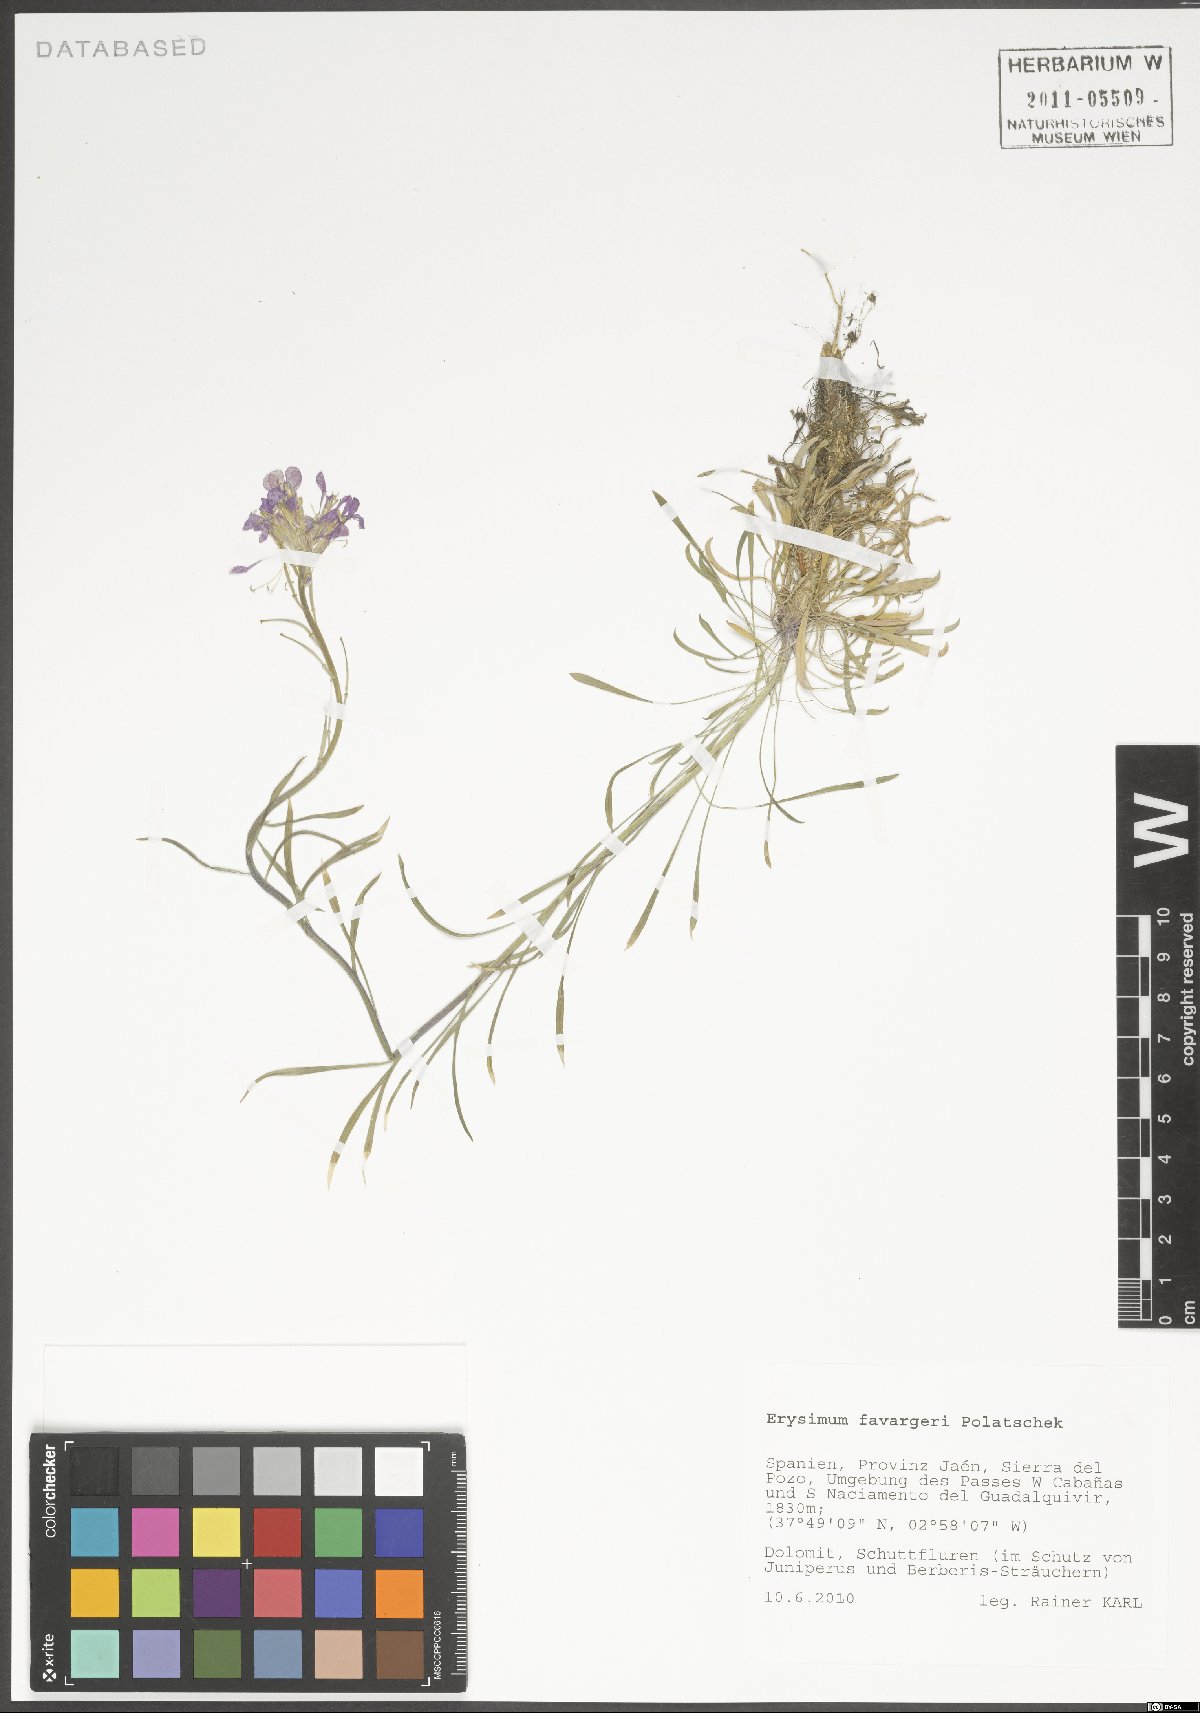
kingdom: Plantae
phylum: Tracheophyta
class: Magnoliopsida
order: Brassicales
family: Brassicaceae
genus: Erysimum
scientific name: Erysimum cazorlense
